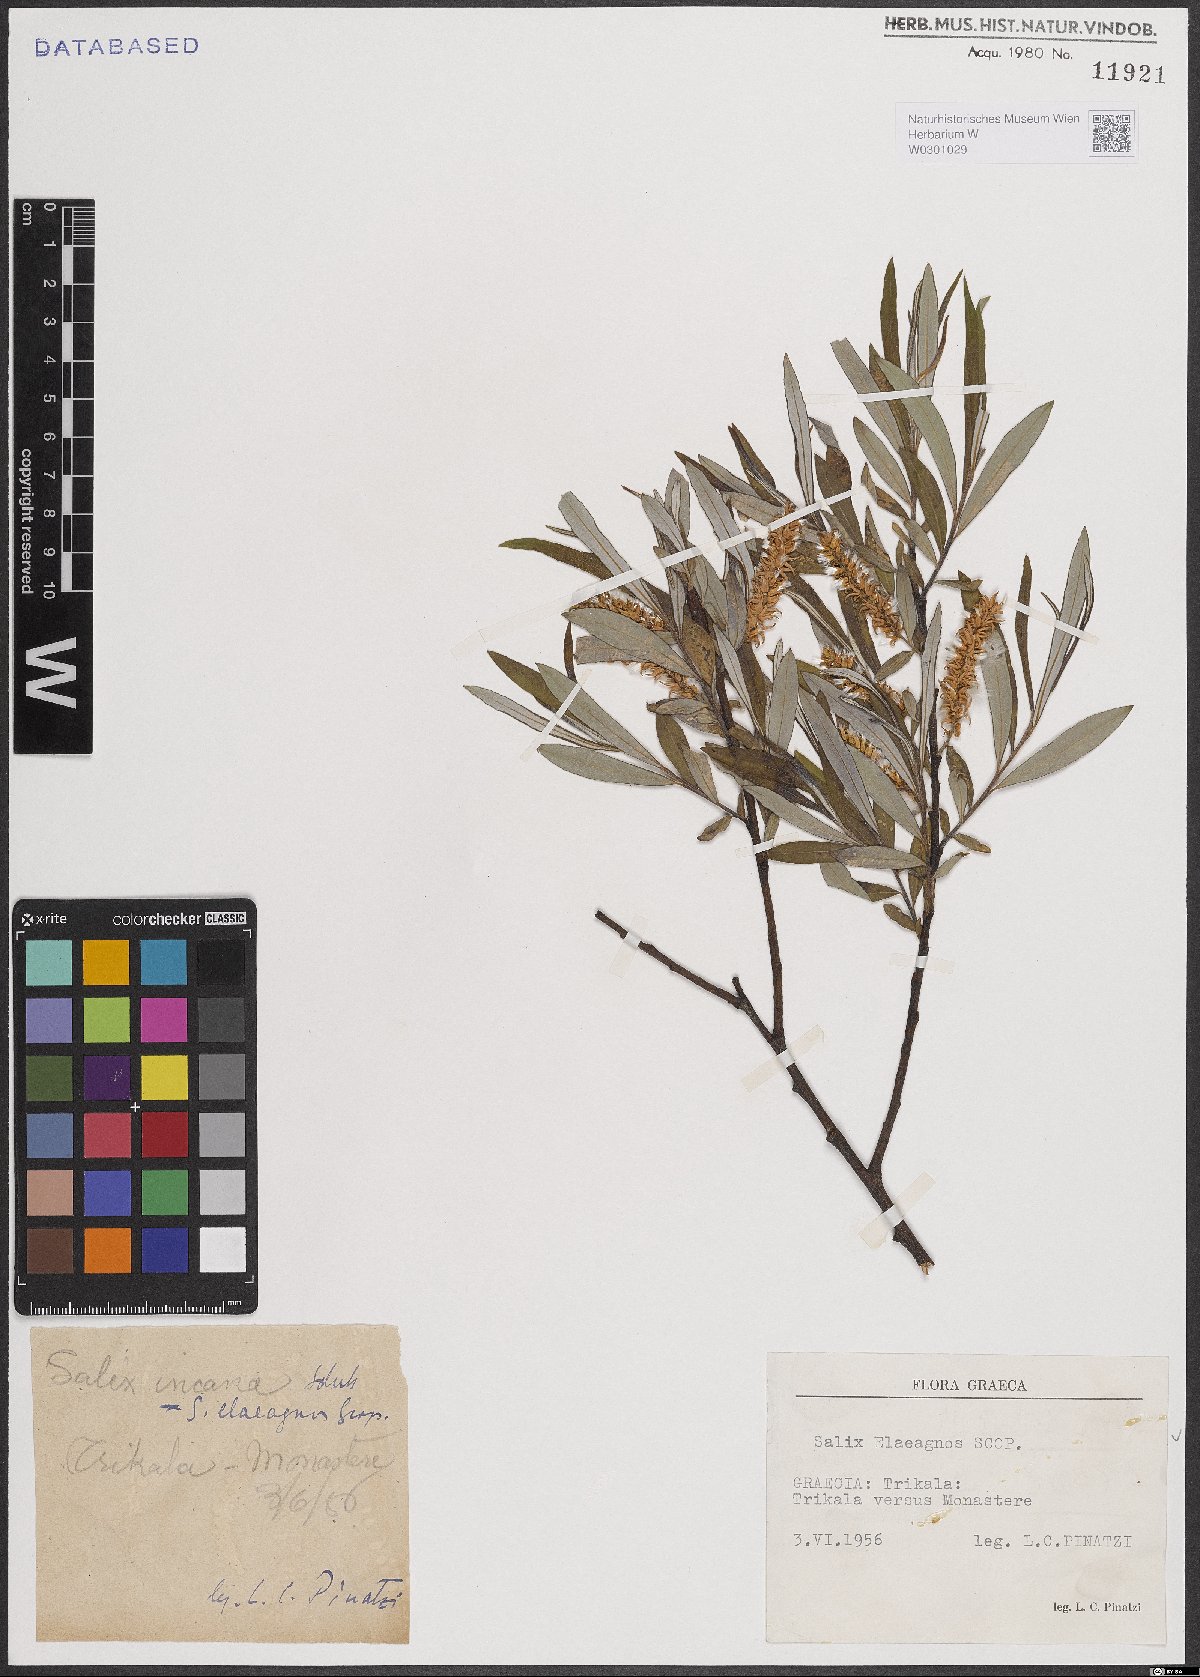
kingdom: Plantae
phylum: Tracheophyta
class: Magnoliopsida
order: Malpighiales
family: Salicaceae
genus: Salix
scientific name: Salix eleagnos
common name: Elaeagnus willow
